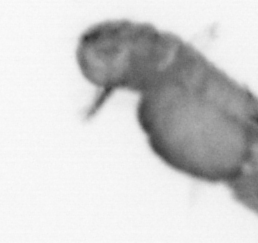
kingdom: Animalia
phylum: Annelida
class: Polychaeta
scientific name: Polychaeta
